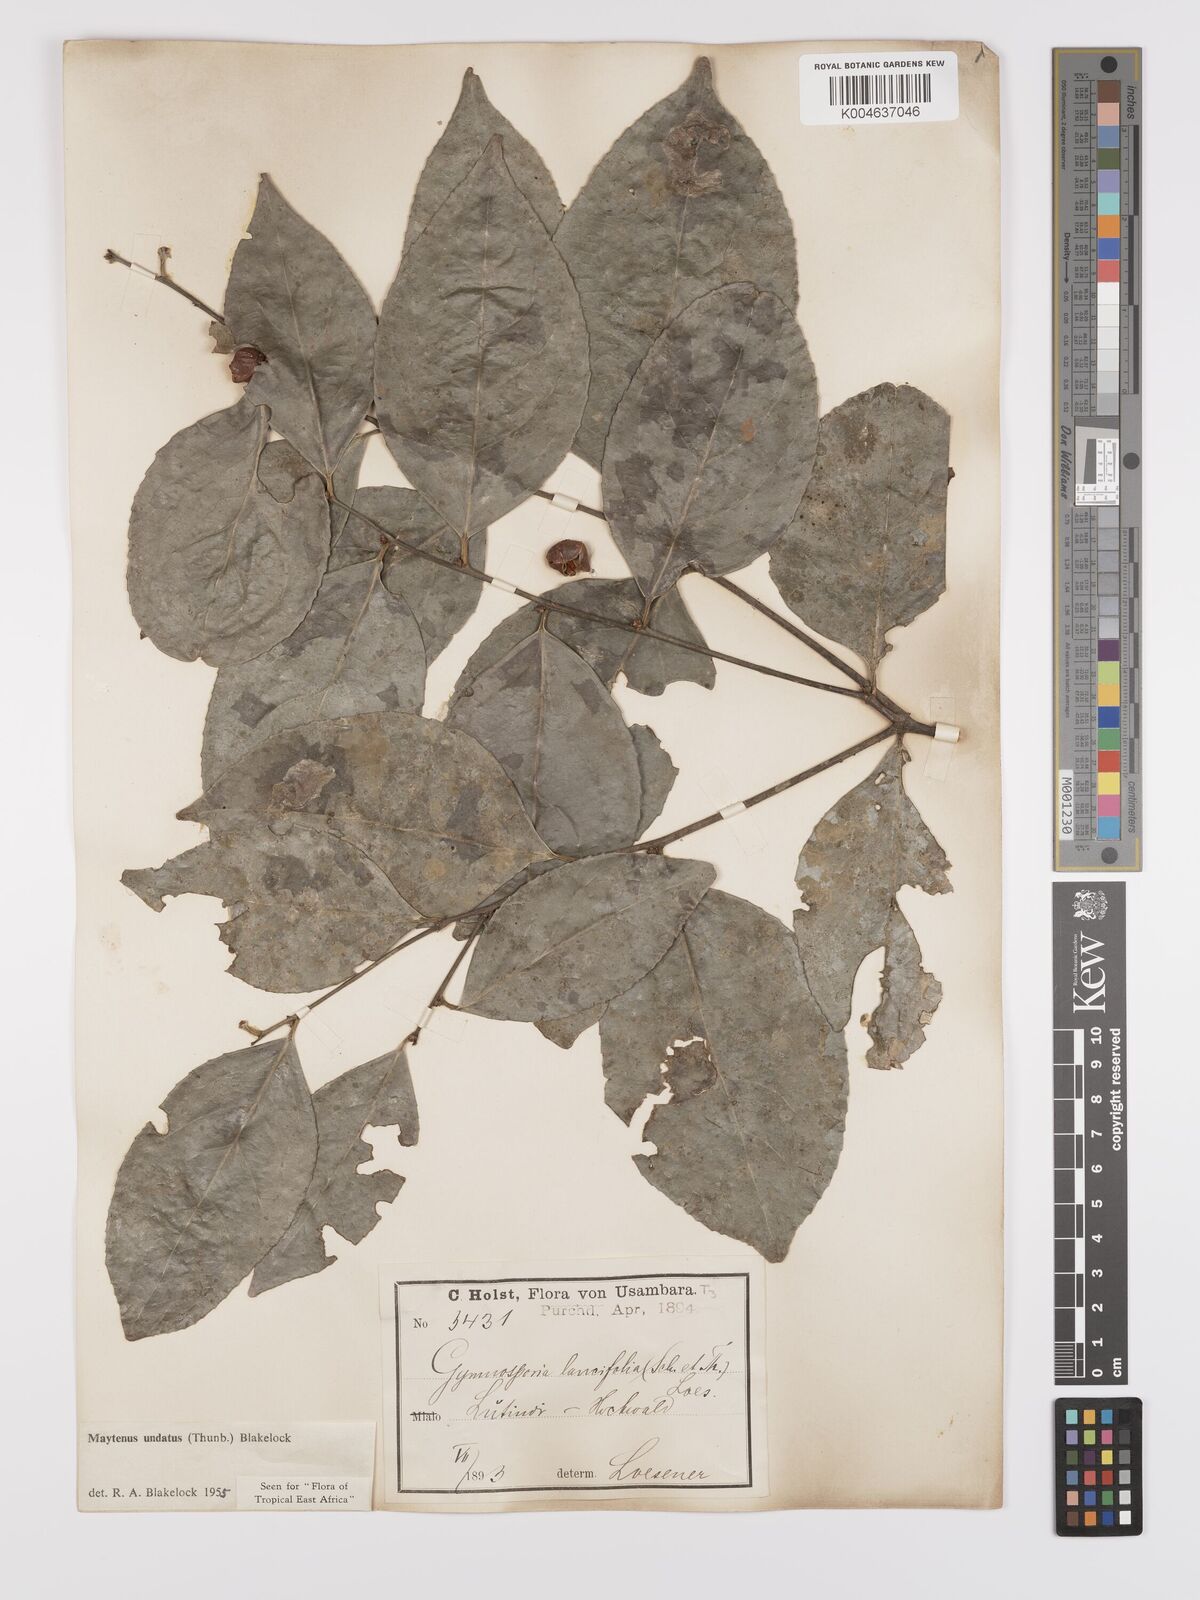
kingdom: Plantae
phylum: Tracheophyta
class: Magnoliopsida
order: Celastrales
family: Celastraceae
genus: Gymnosporia
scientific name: Gymnosporia undata
